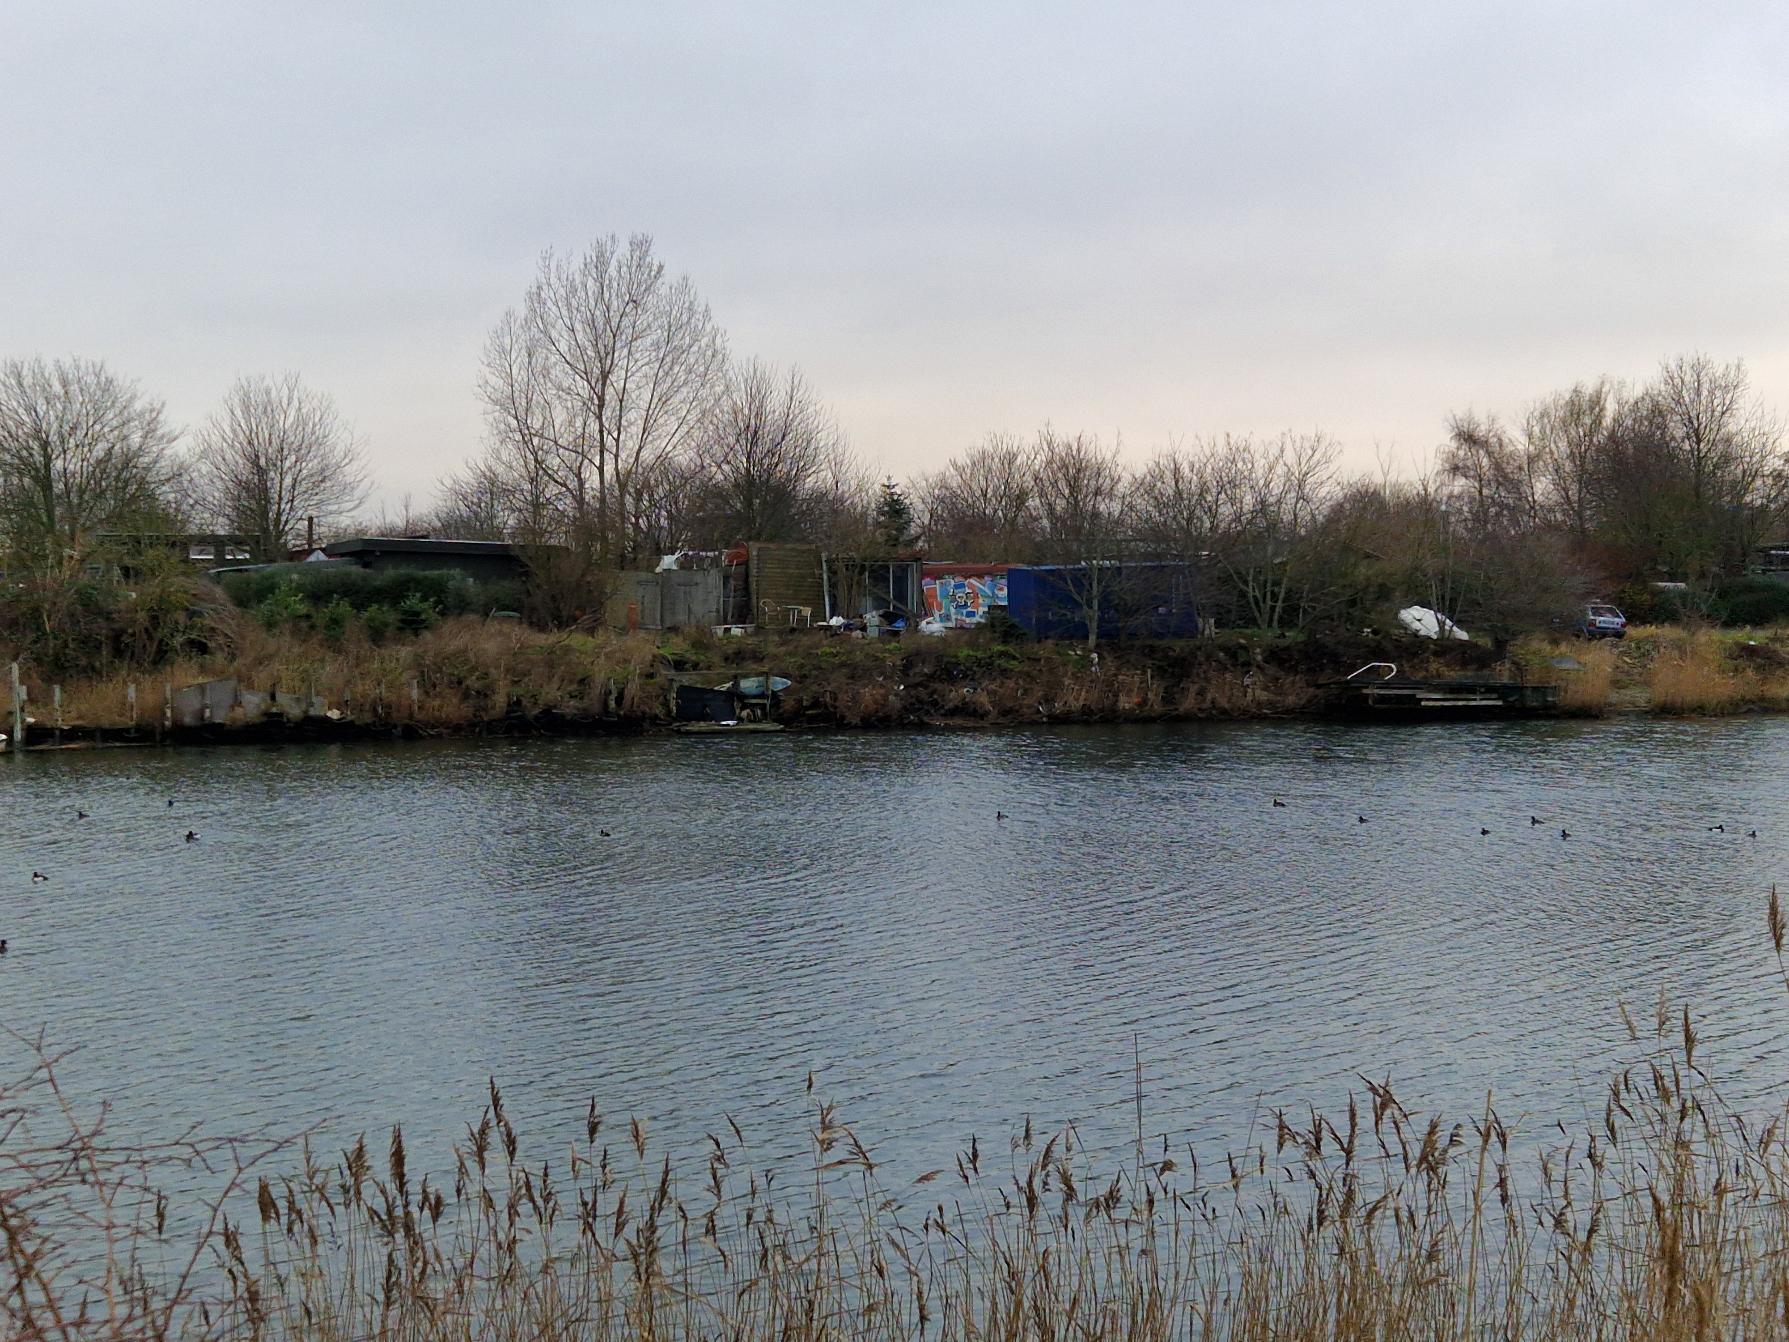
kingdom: Animalia
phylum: Chordata
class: Aves
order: Anseriformes
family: Anatidae
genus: Aythya
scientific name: Aythya fuligula
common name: Troldand
